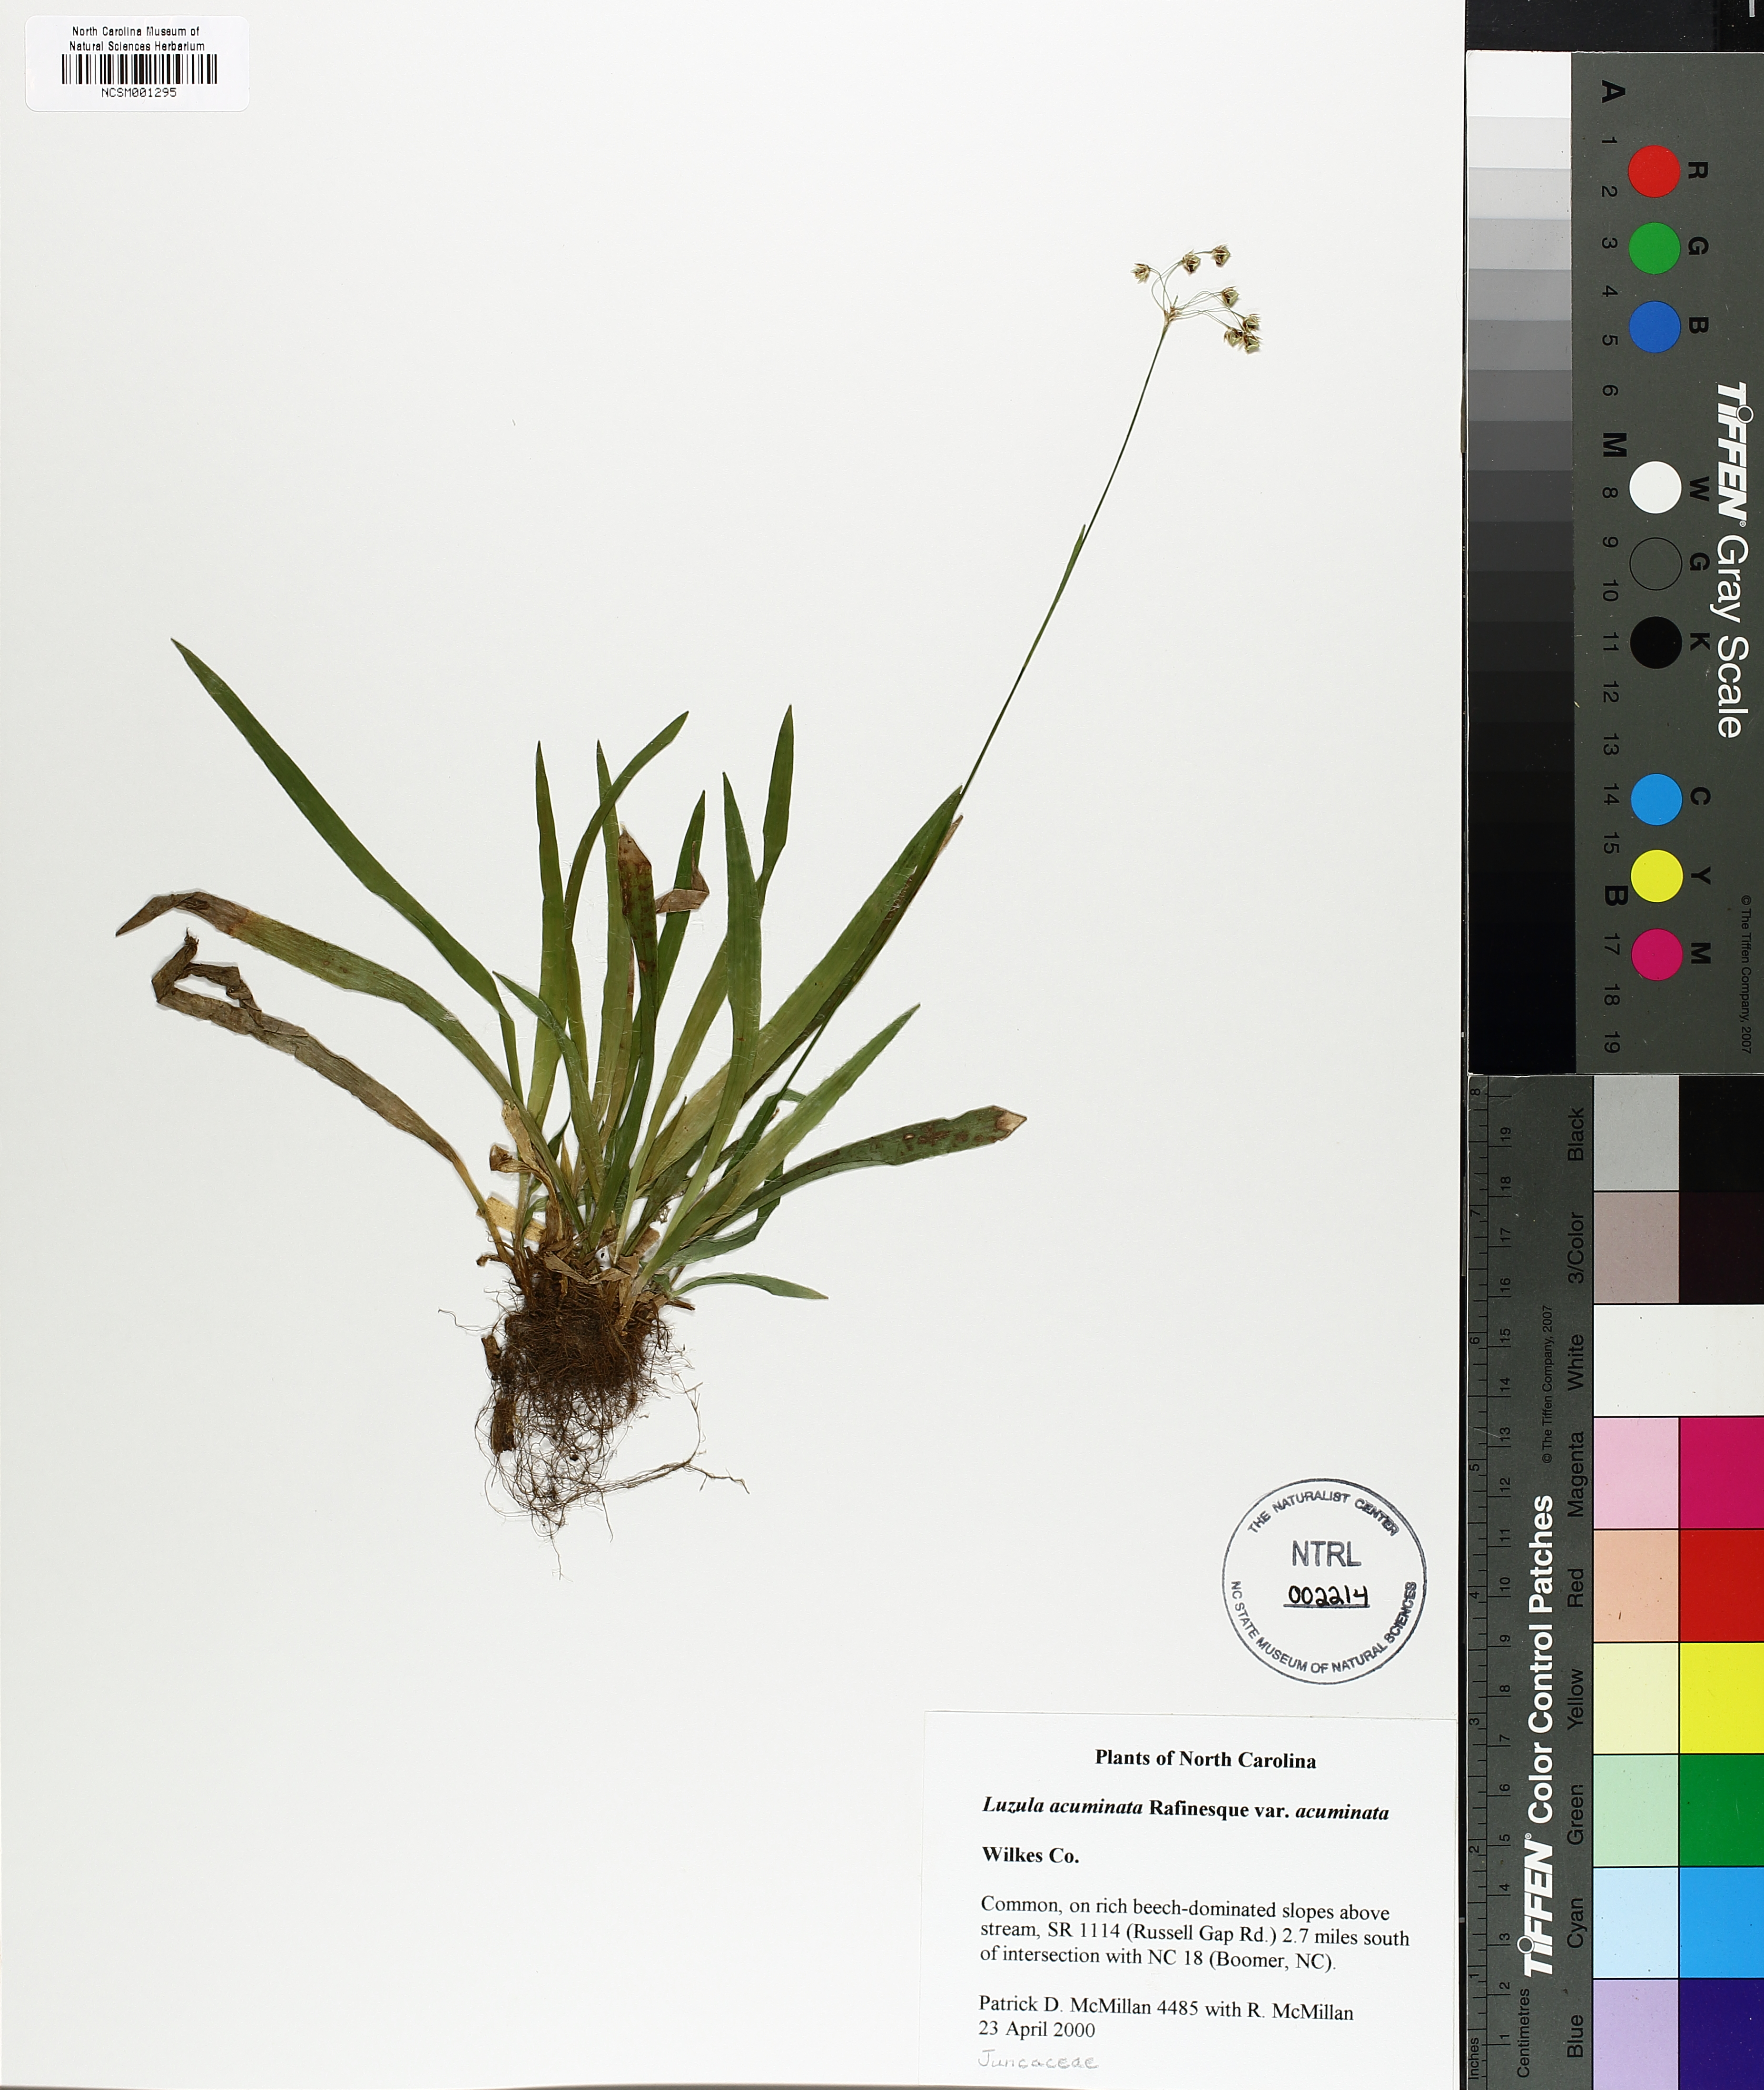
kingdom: Plantae
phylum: Tracheophyta
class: Liliopsida
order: Poales
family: Juncaceae
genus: Luzula
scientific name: Luzula acuminata
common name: Hairy woodrush
